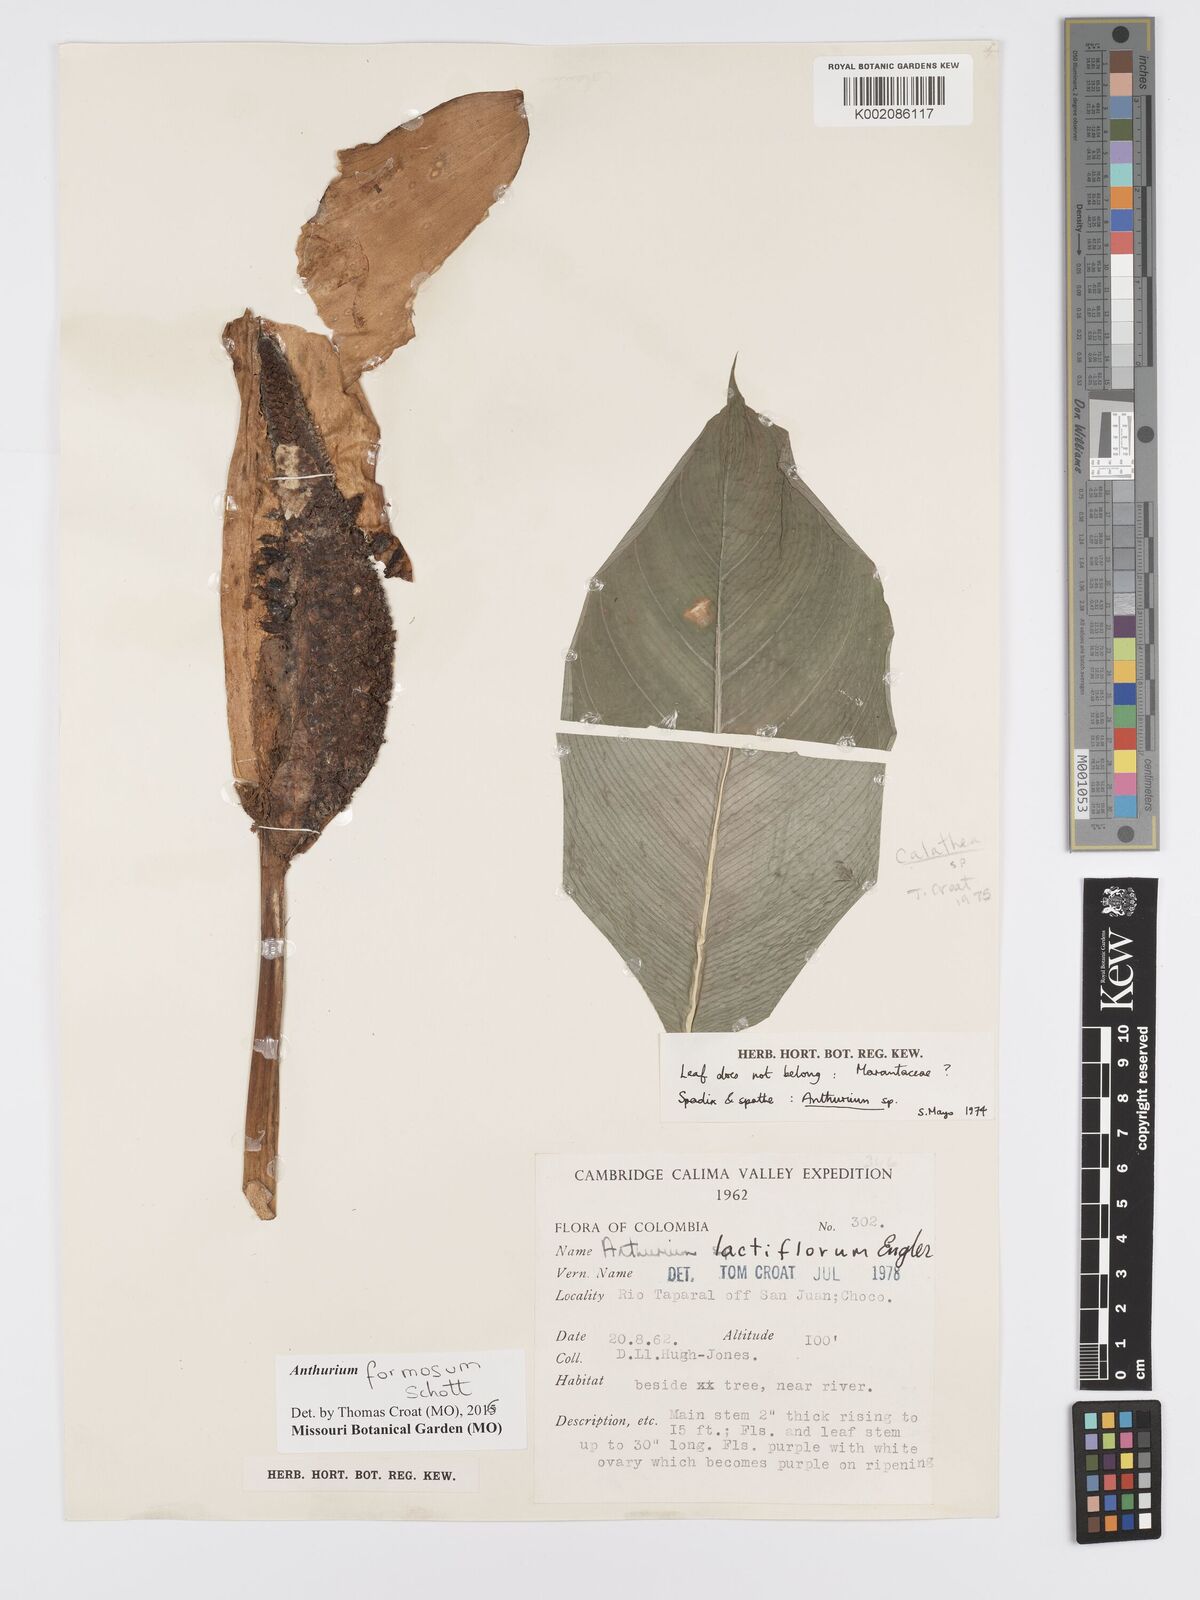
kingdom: Plantae
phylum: Tracheophyta
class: Liliopsida
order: Alismatales
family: Araceae
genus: Anthurium
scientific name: Anthurium formosum
